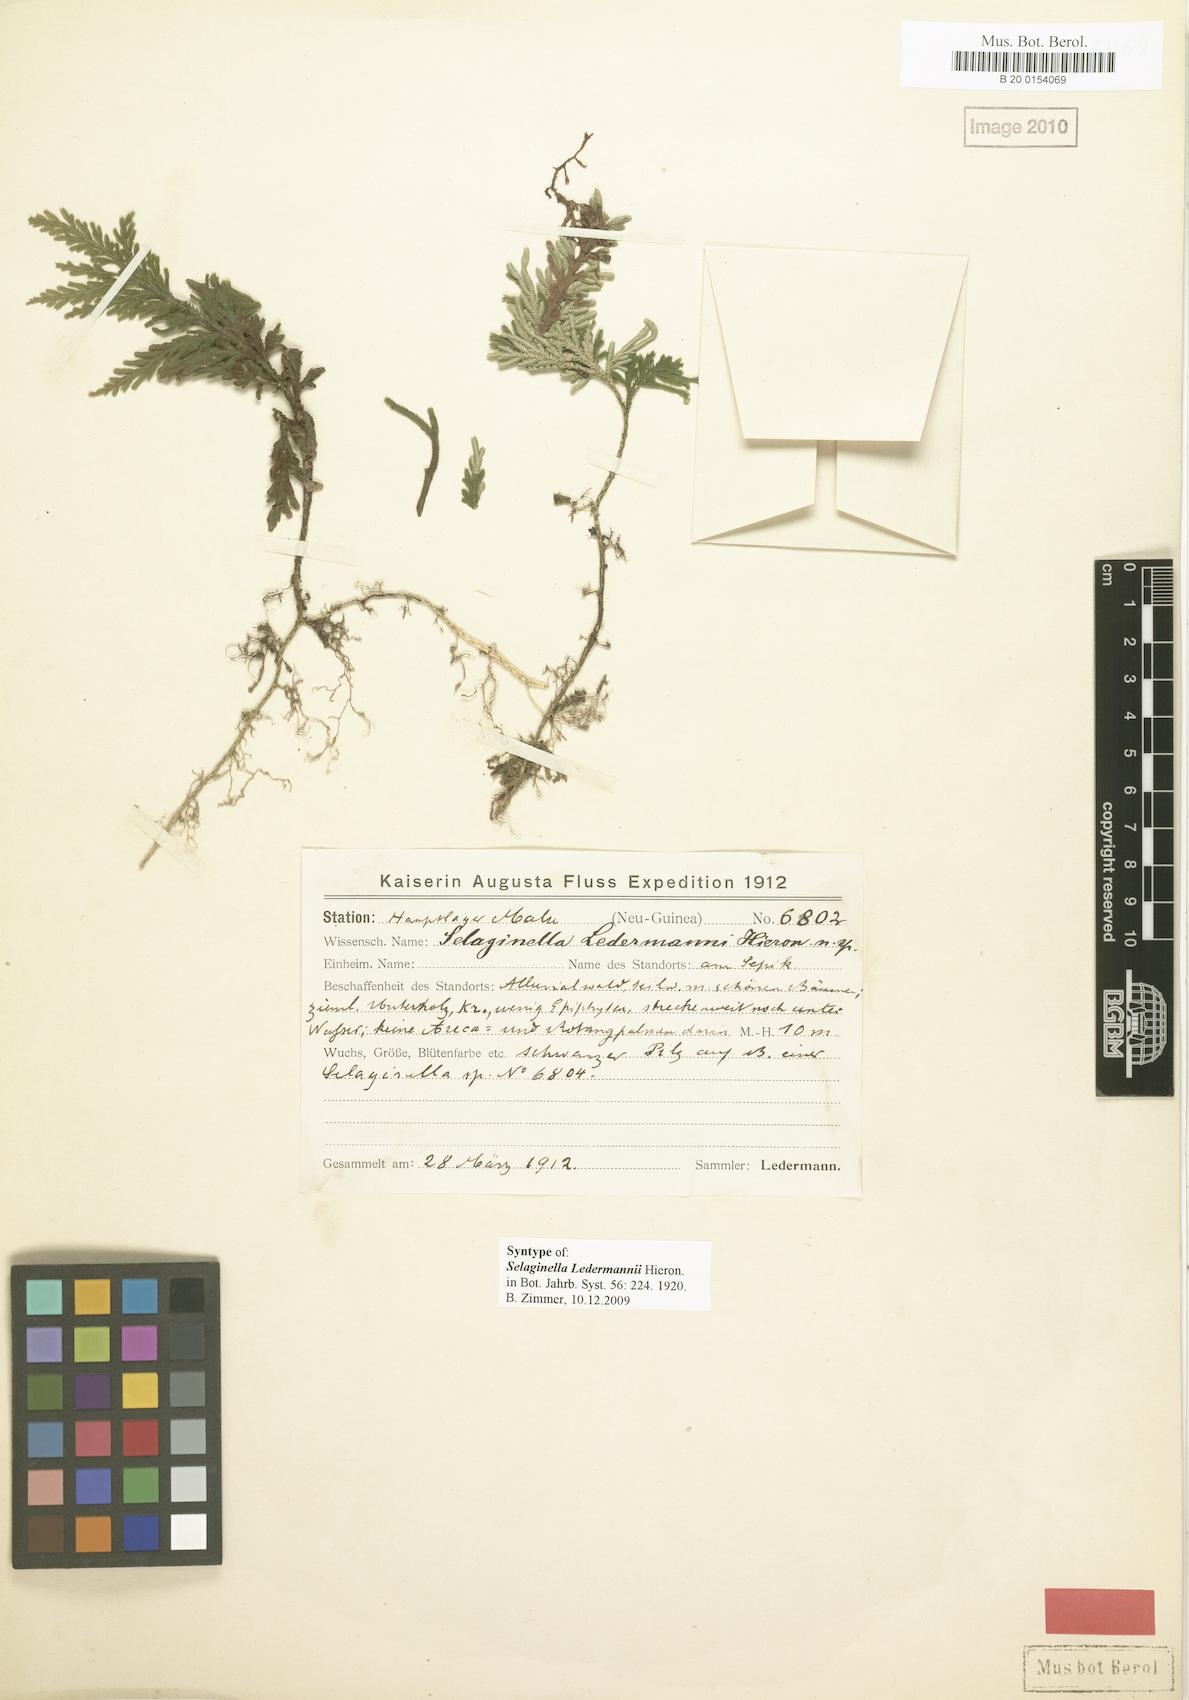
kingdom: Plantae
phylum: Tracheophyta
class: Lycopodiopsida
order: Selaginellales
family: Selaginellaceae
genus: Selaginella
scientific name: Selaginella ledermannii
